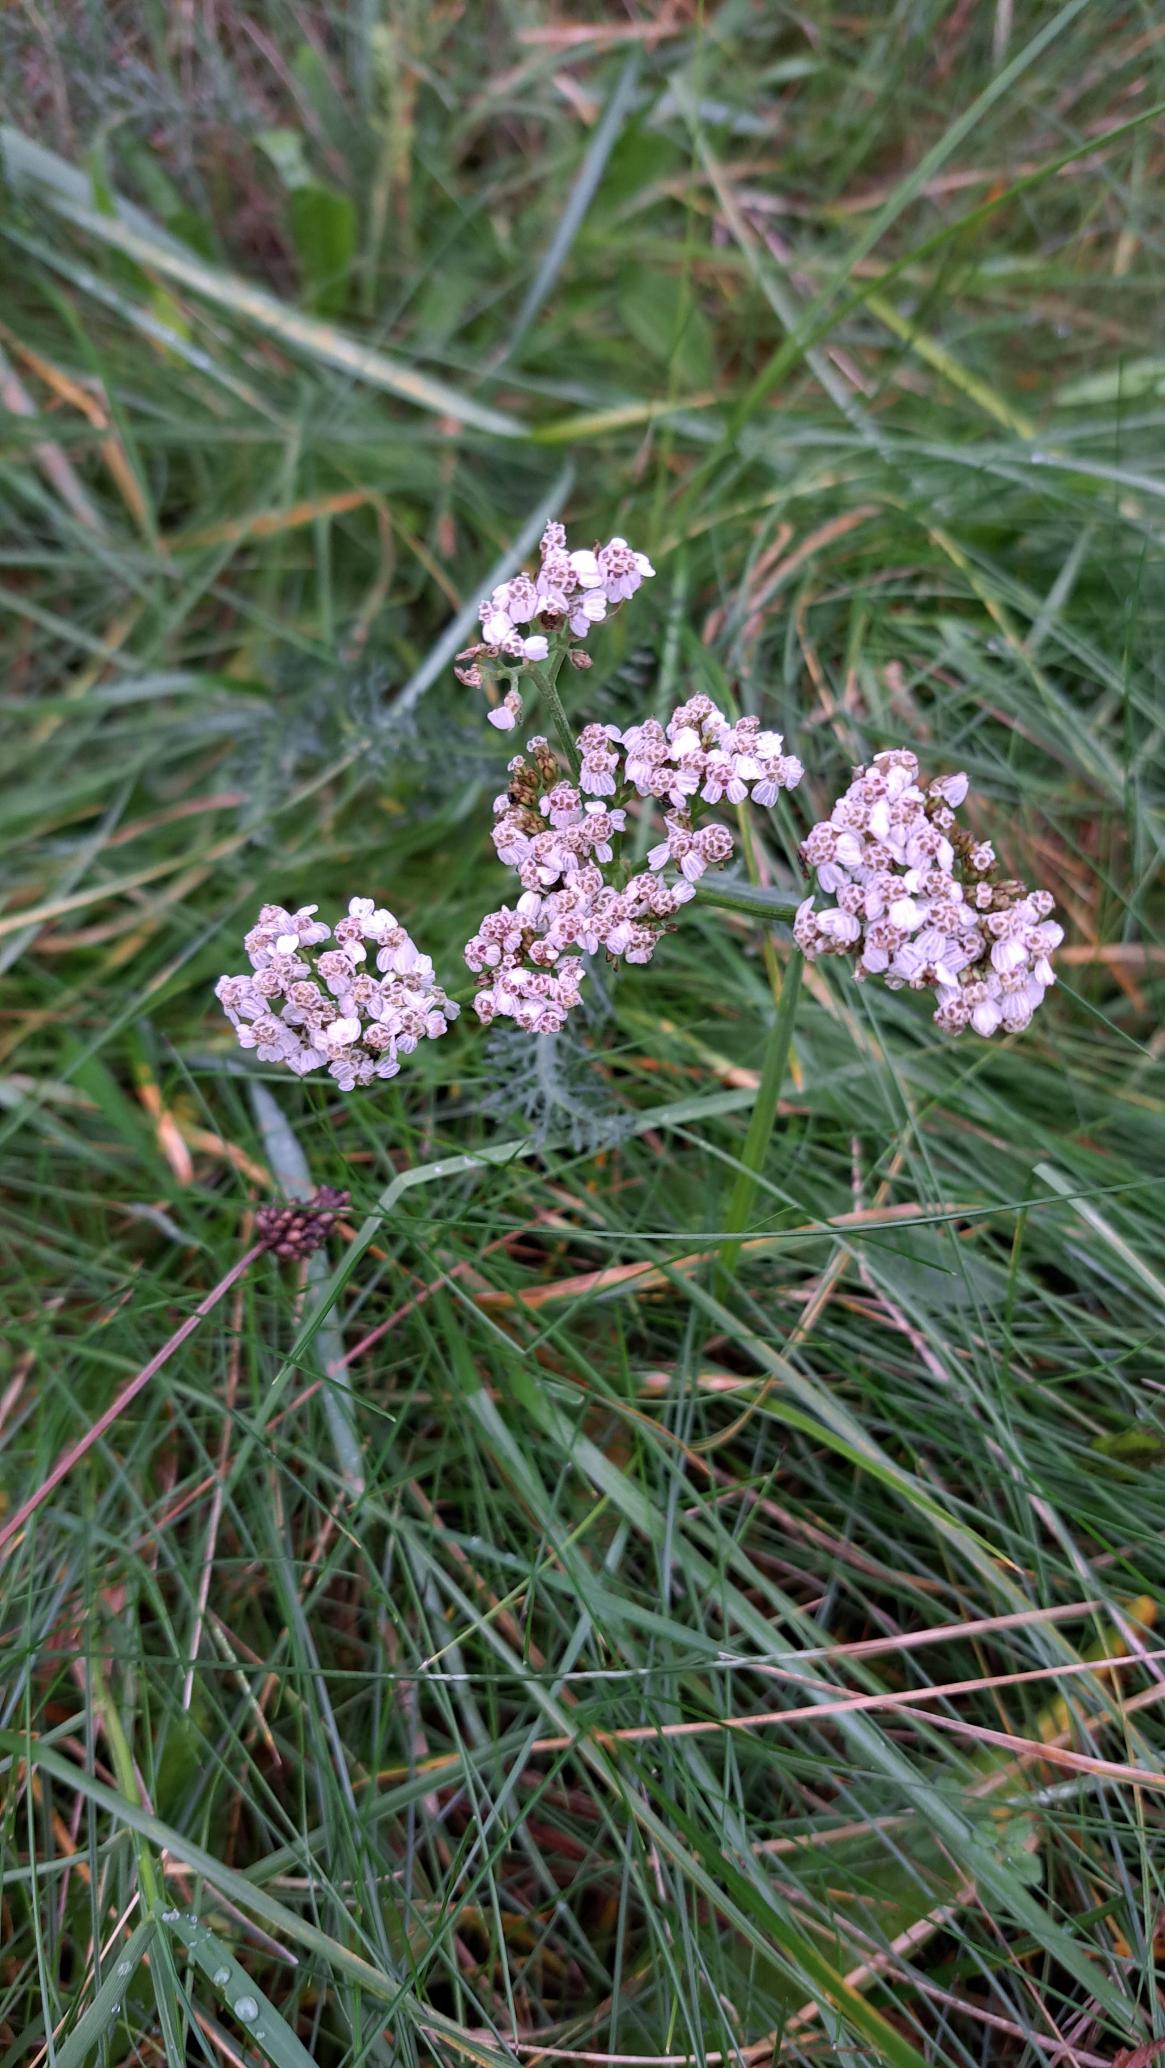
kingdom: Plantae
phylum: Tracheophyta
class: Magnoliopsida
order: Asterales
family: Asteraceae
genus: Achillea
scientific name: Achillea millefolium
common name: Almindelig røllike
